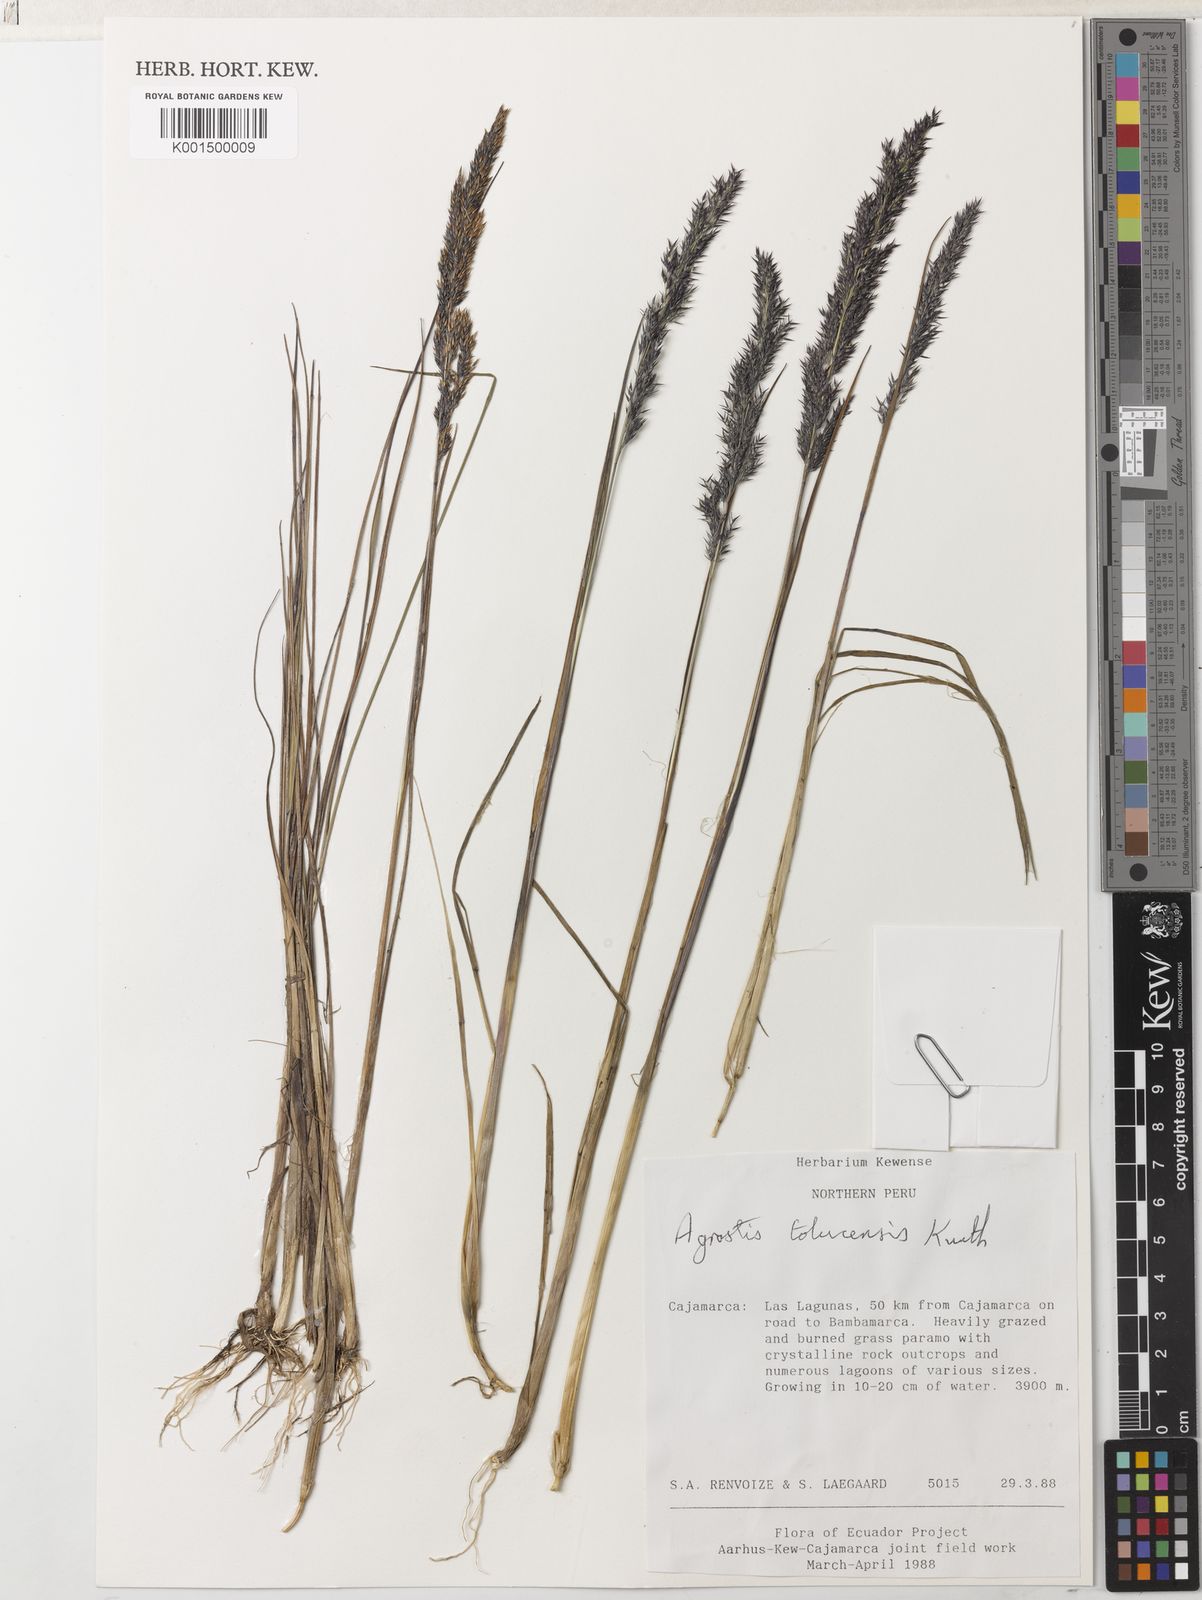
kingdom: Plantae
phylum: Tracheophyta
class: Liliopsida
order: Poales
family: Poaceae
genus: Agrostis
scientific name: Agrostis tolucensis
